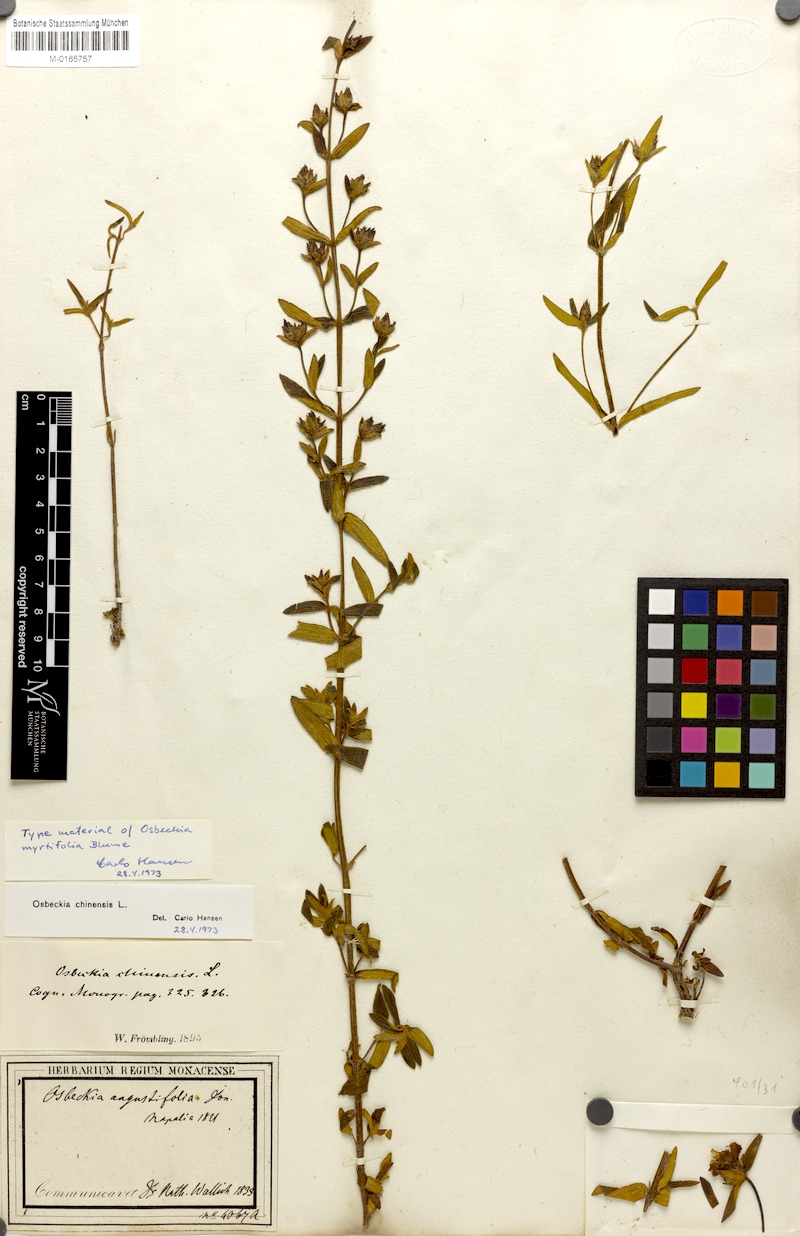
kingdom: Plantae
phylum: Tracheophyta
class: Magnoliopsida
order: Myrtales
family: Melastomataceae
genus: Osbeckia
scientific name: Osbeckia chinensis
